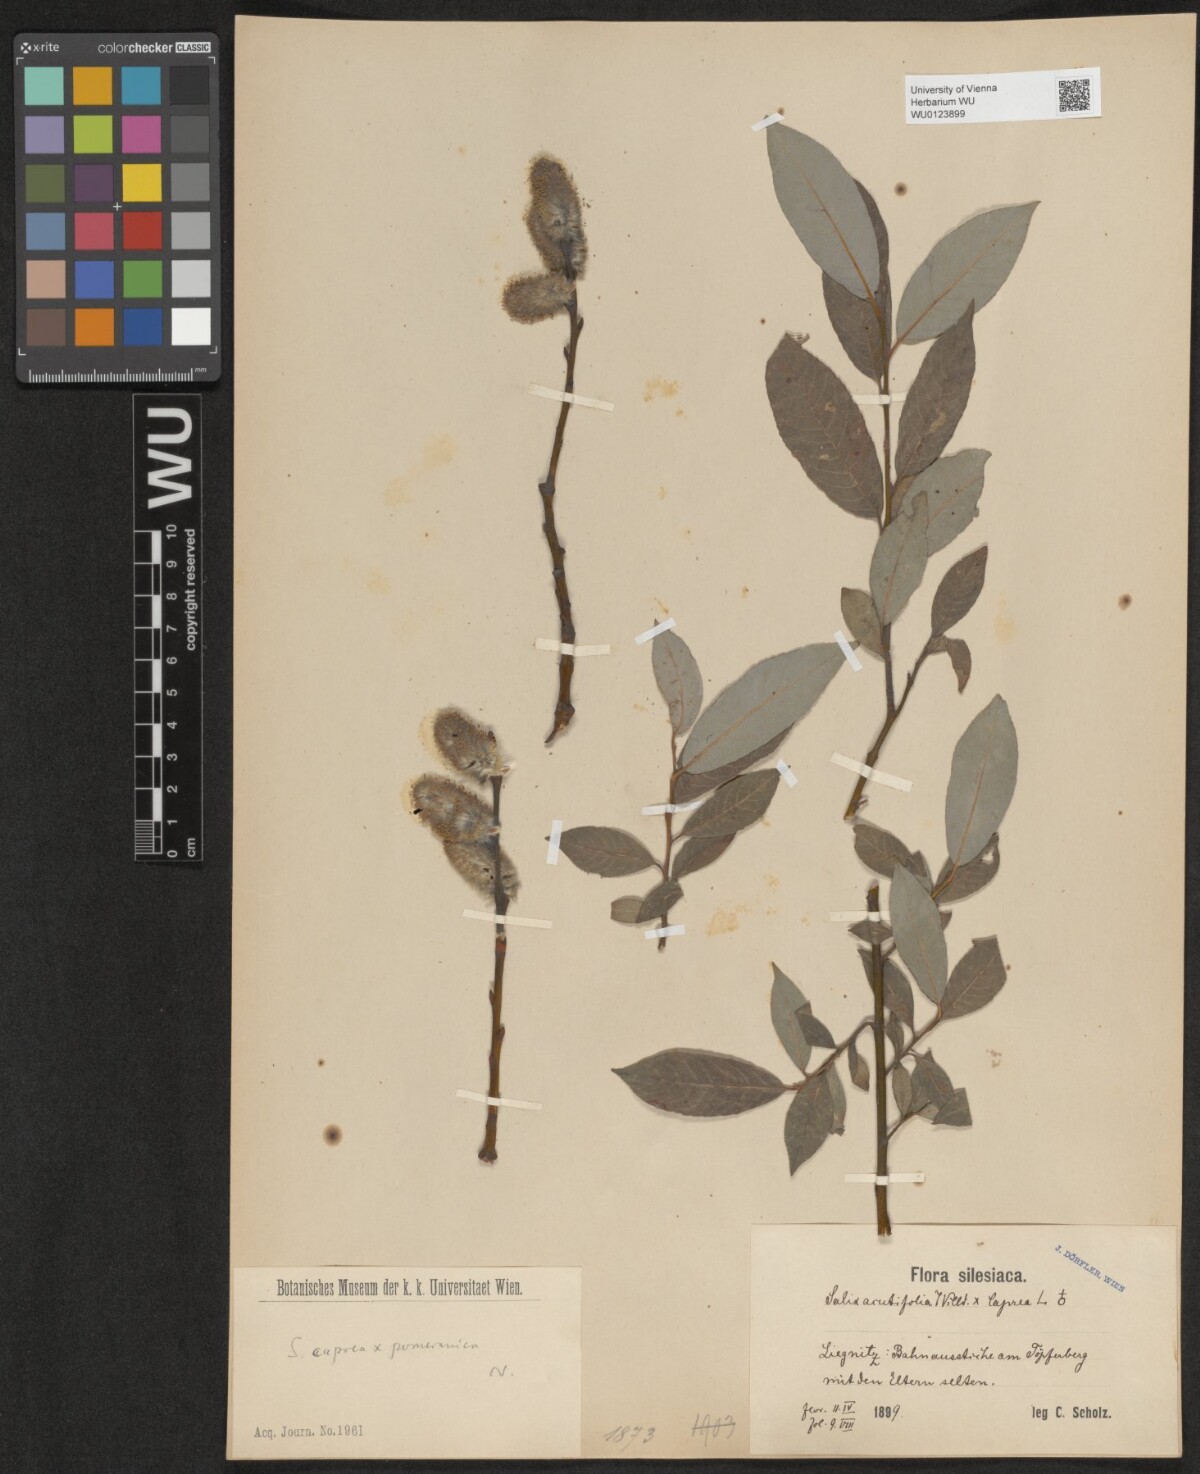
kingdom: Plantae
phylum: Tracheophyta
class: Magnoliopsida
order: Malpighiales
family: Salicaceae
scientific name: Salicaceae
